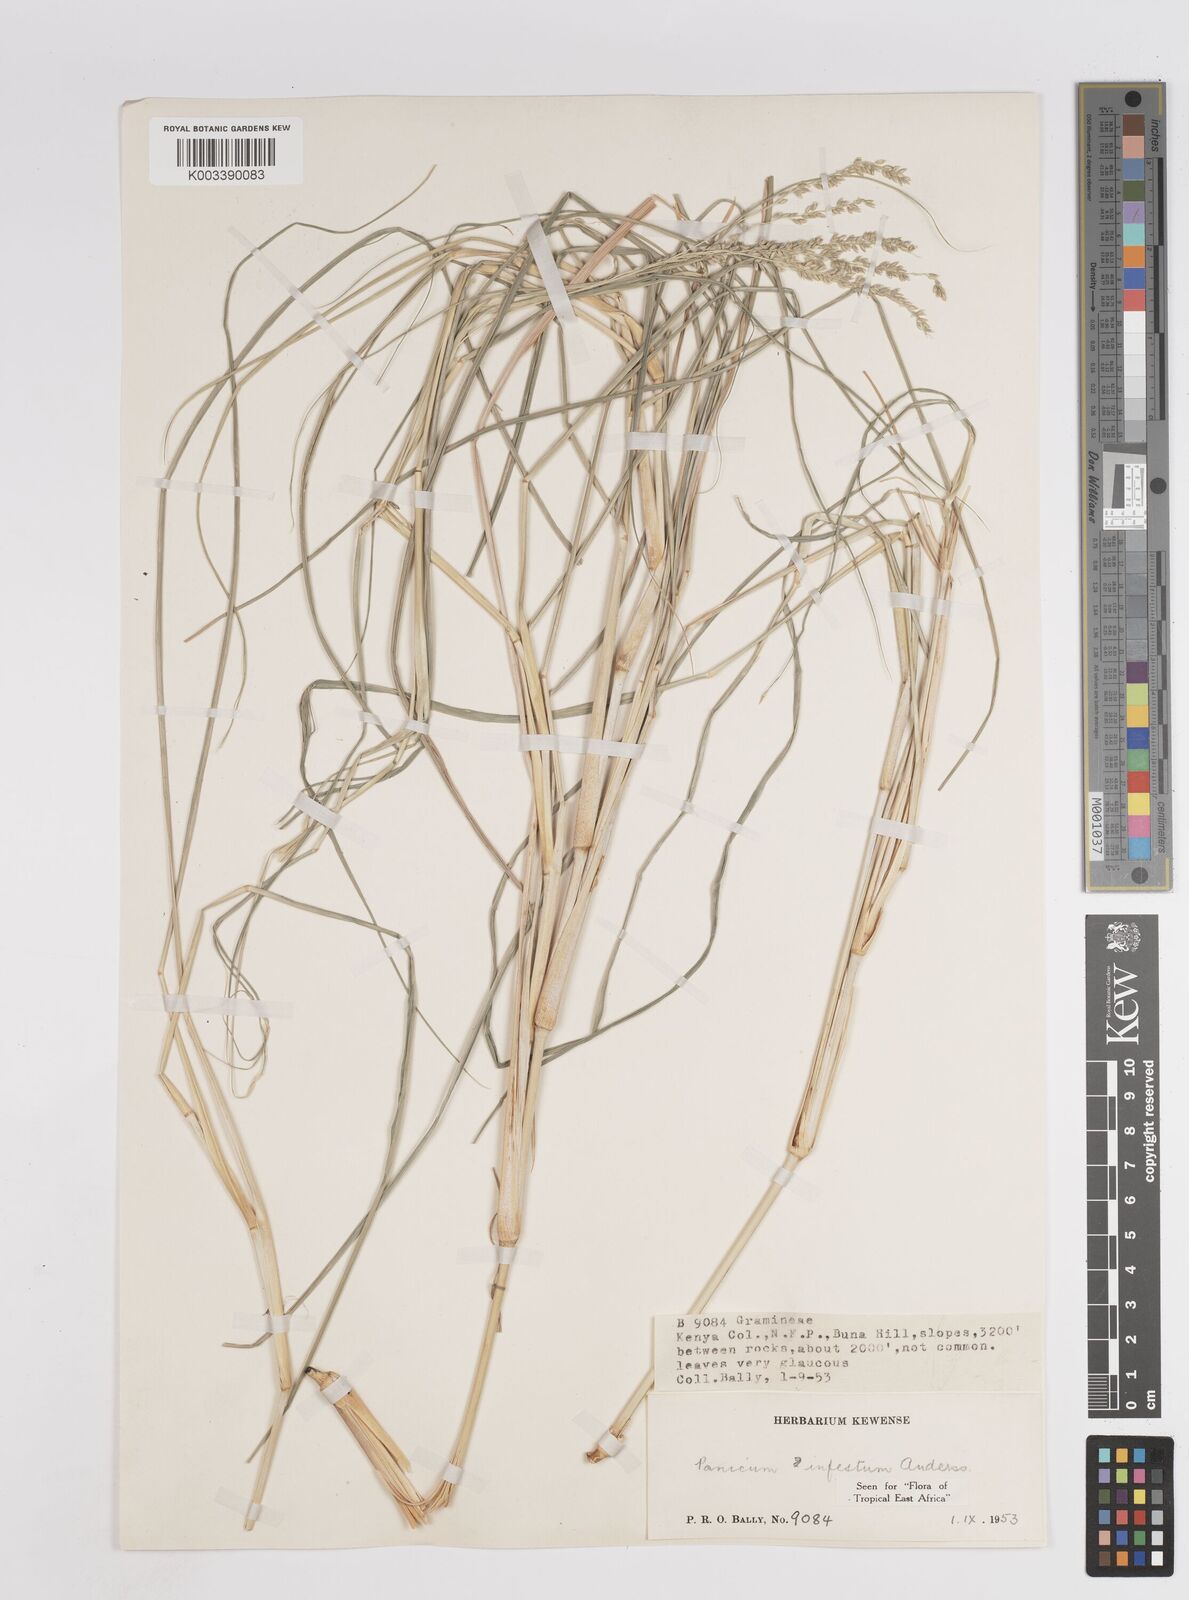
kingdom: Plantae
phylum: Tracheophyta
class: Liliopsida
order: Poales
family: Poaceae
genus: Megathyrsus
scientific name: Megathyrsus infestus
